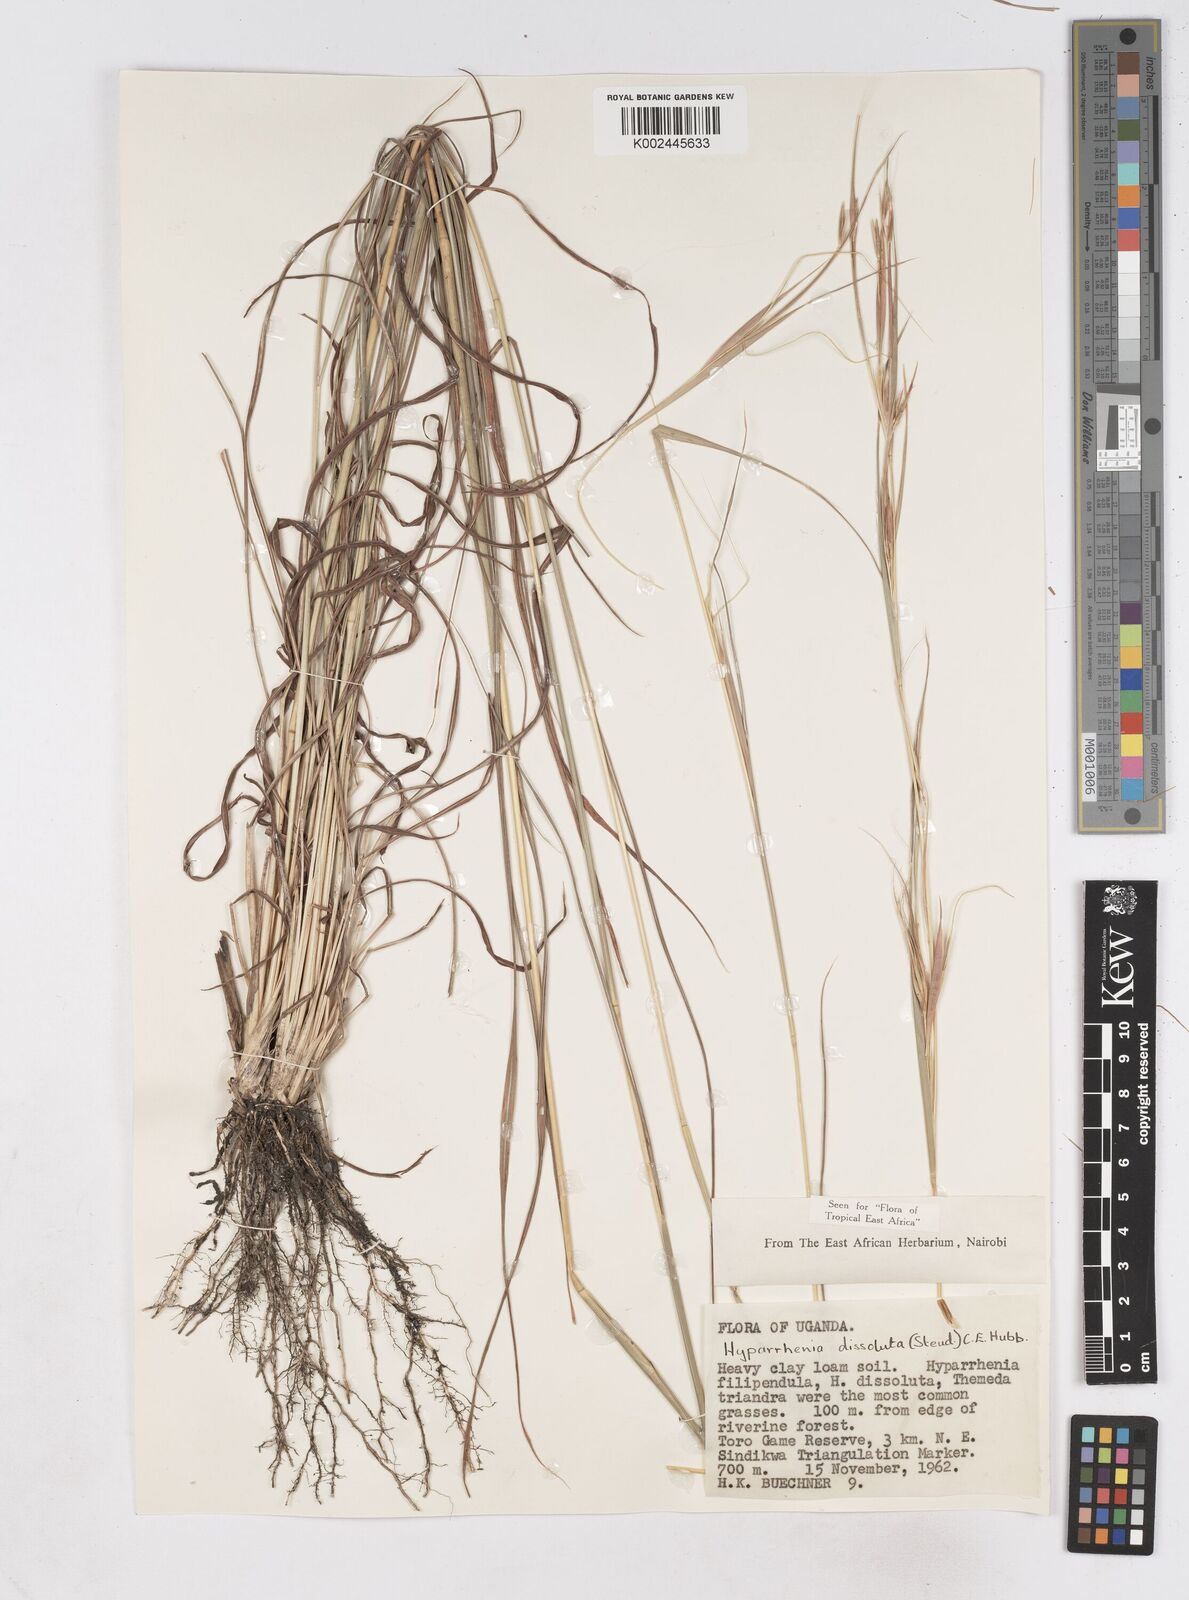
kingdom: Plantae
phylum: Tracheophyta
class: Liliopsida
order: Poales
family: Poaceae
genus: Hyperthelia
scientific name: Hyperthelia dissoluta
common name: Yellow thatching grass
